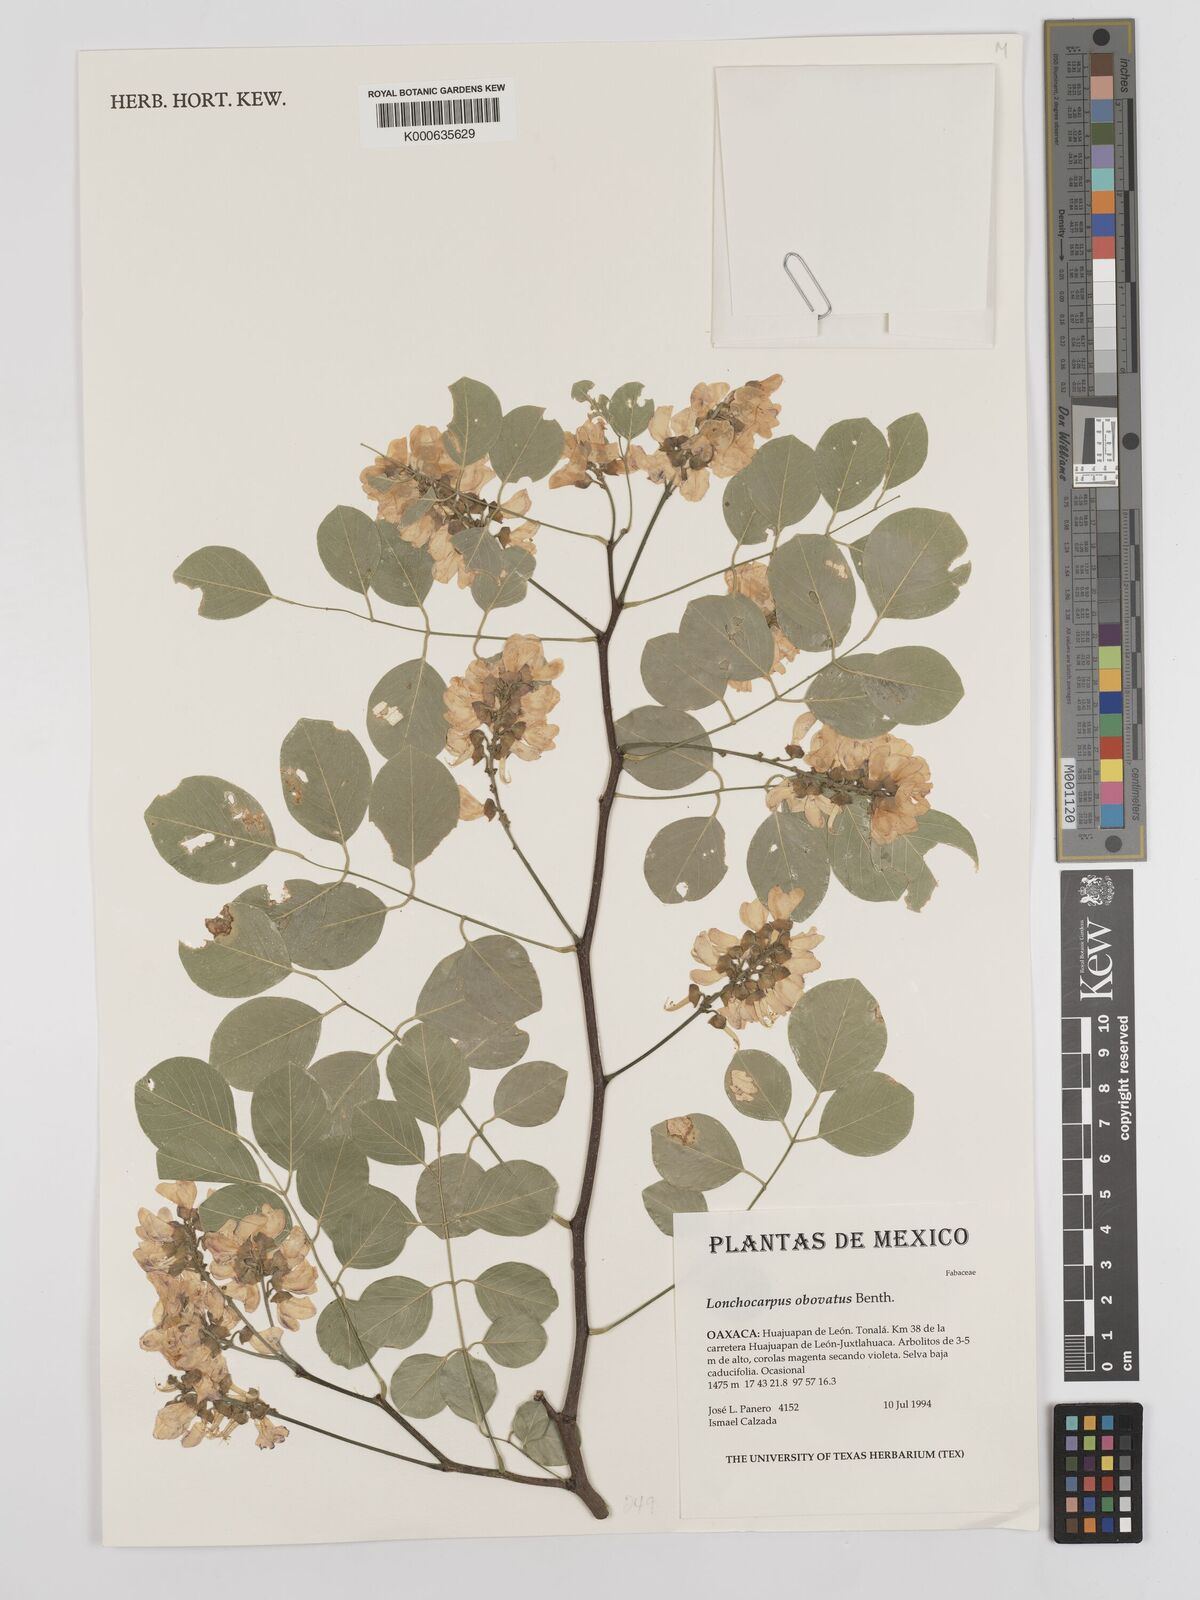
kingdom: Plantae
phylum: Tracheophyta
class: Magnoliopsida
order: Fabales
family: Fabaceae
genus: Lonchocarpus
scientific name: Lonchocarpus obovatus
